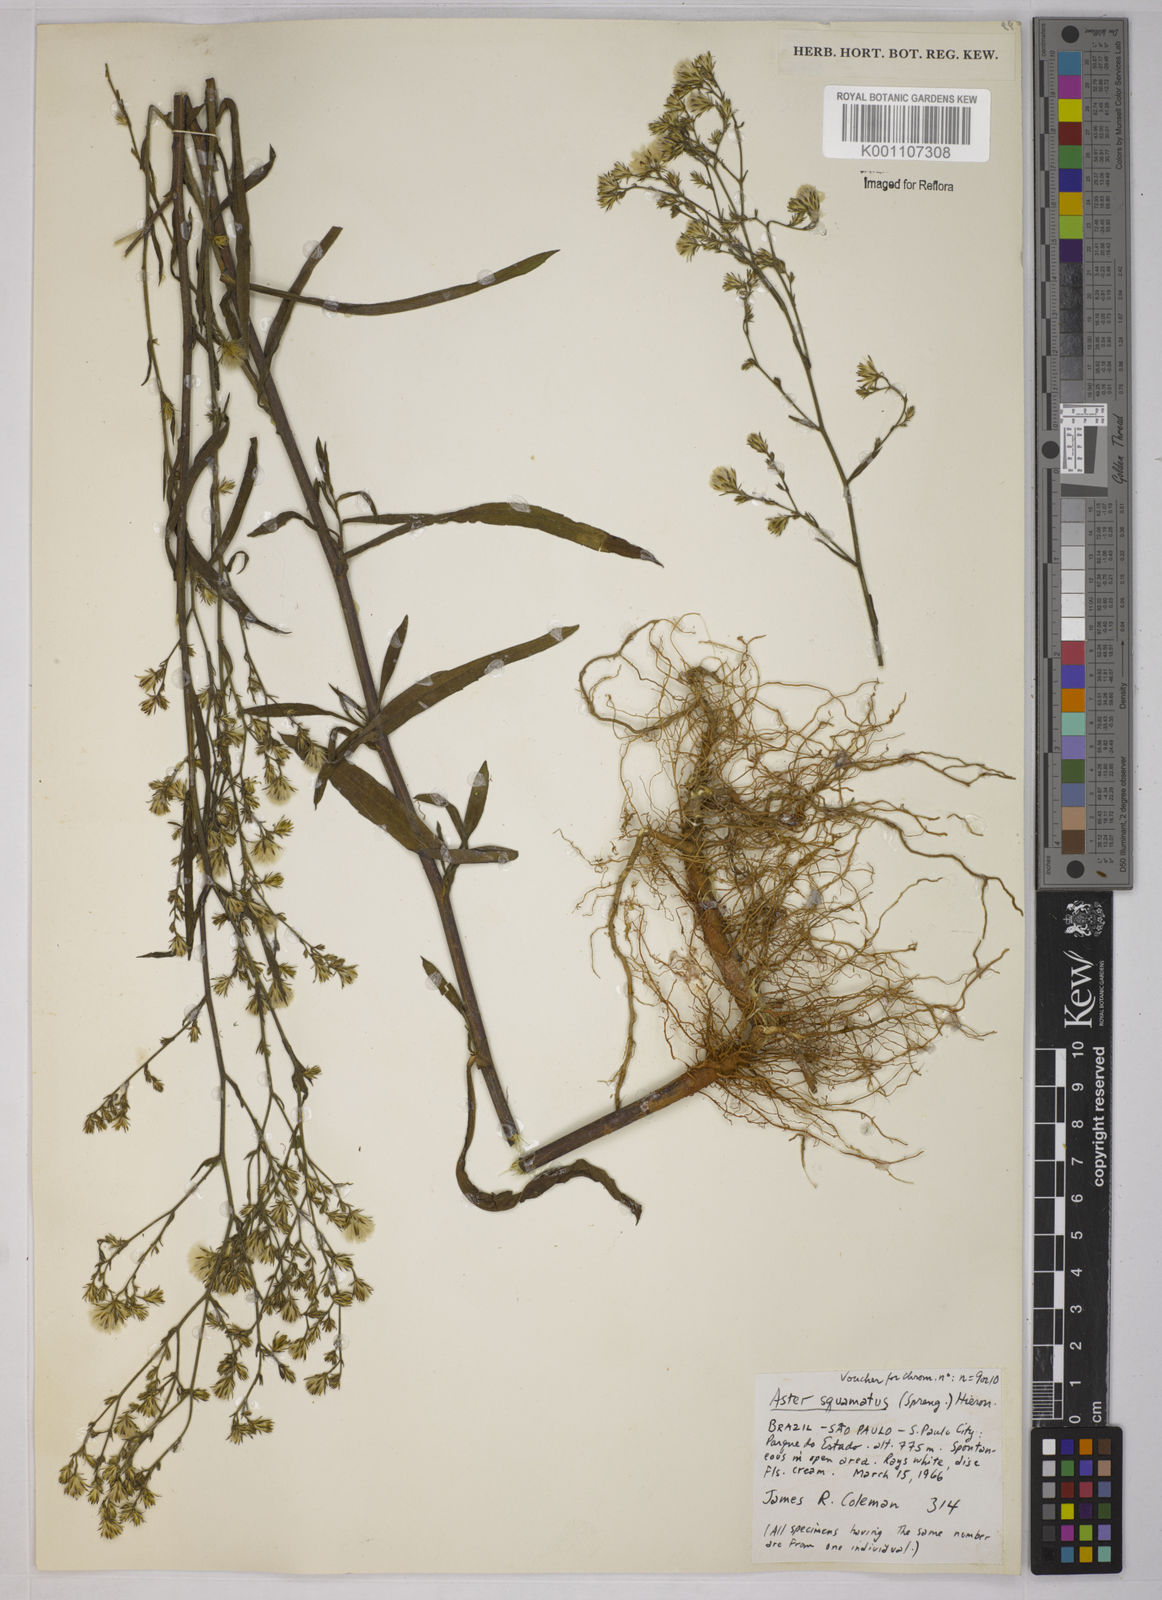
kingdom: Plantae
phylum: Tracheophyta
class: Magnoliopsida
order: Asterales
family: Asteraceae
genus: Symphyotrichum
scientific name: Symphyotrichum
